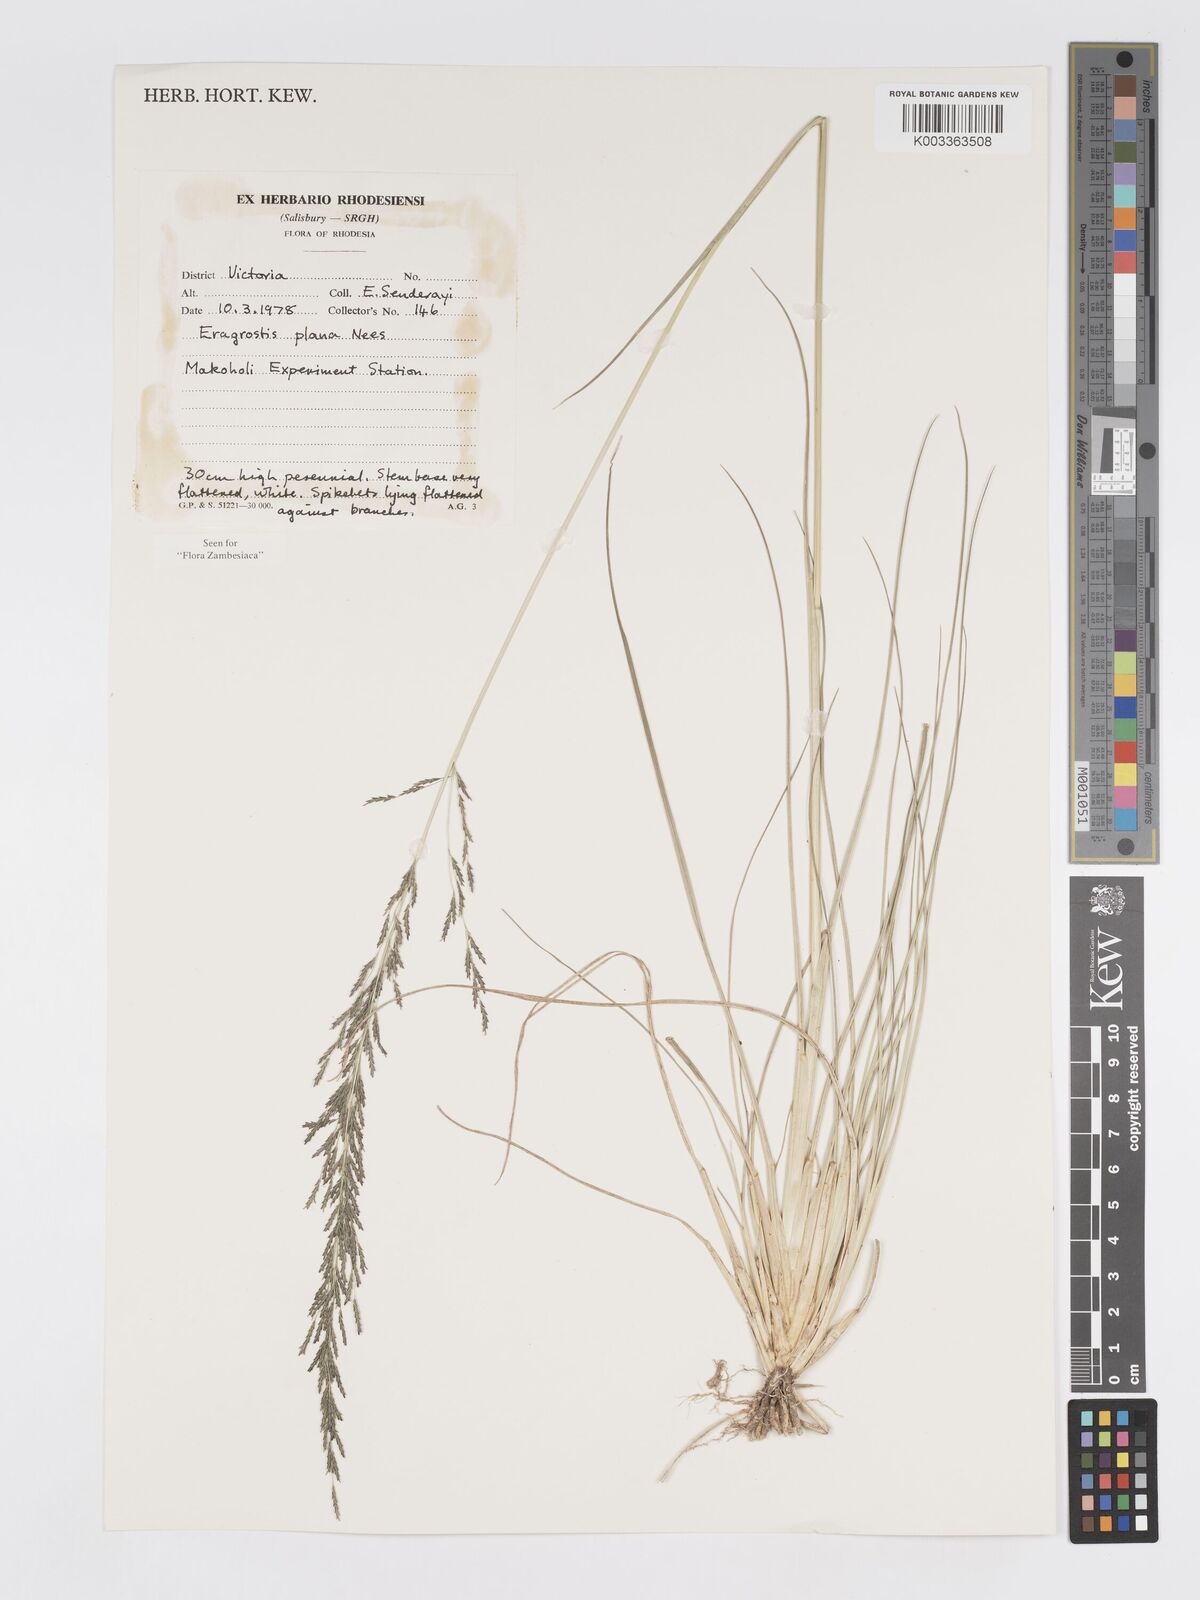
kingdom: Plantae
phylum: Tracheophyta
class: Liliopsida
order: Poales
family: Poaceae
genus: Eragrostis
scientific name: Eragrostis plana
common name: South african lovegrass
